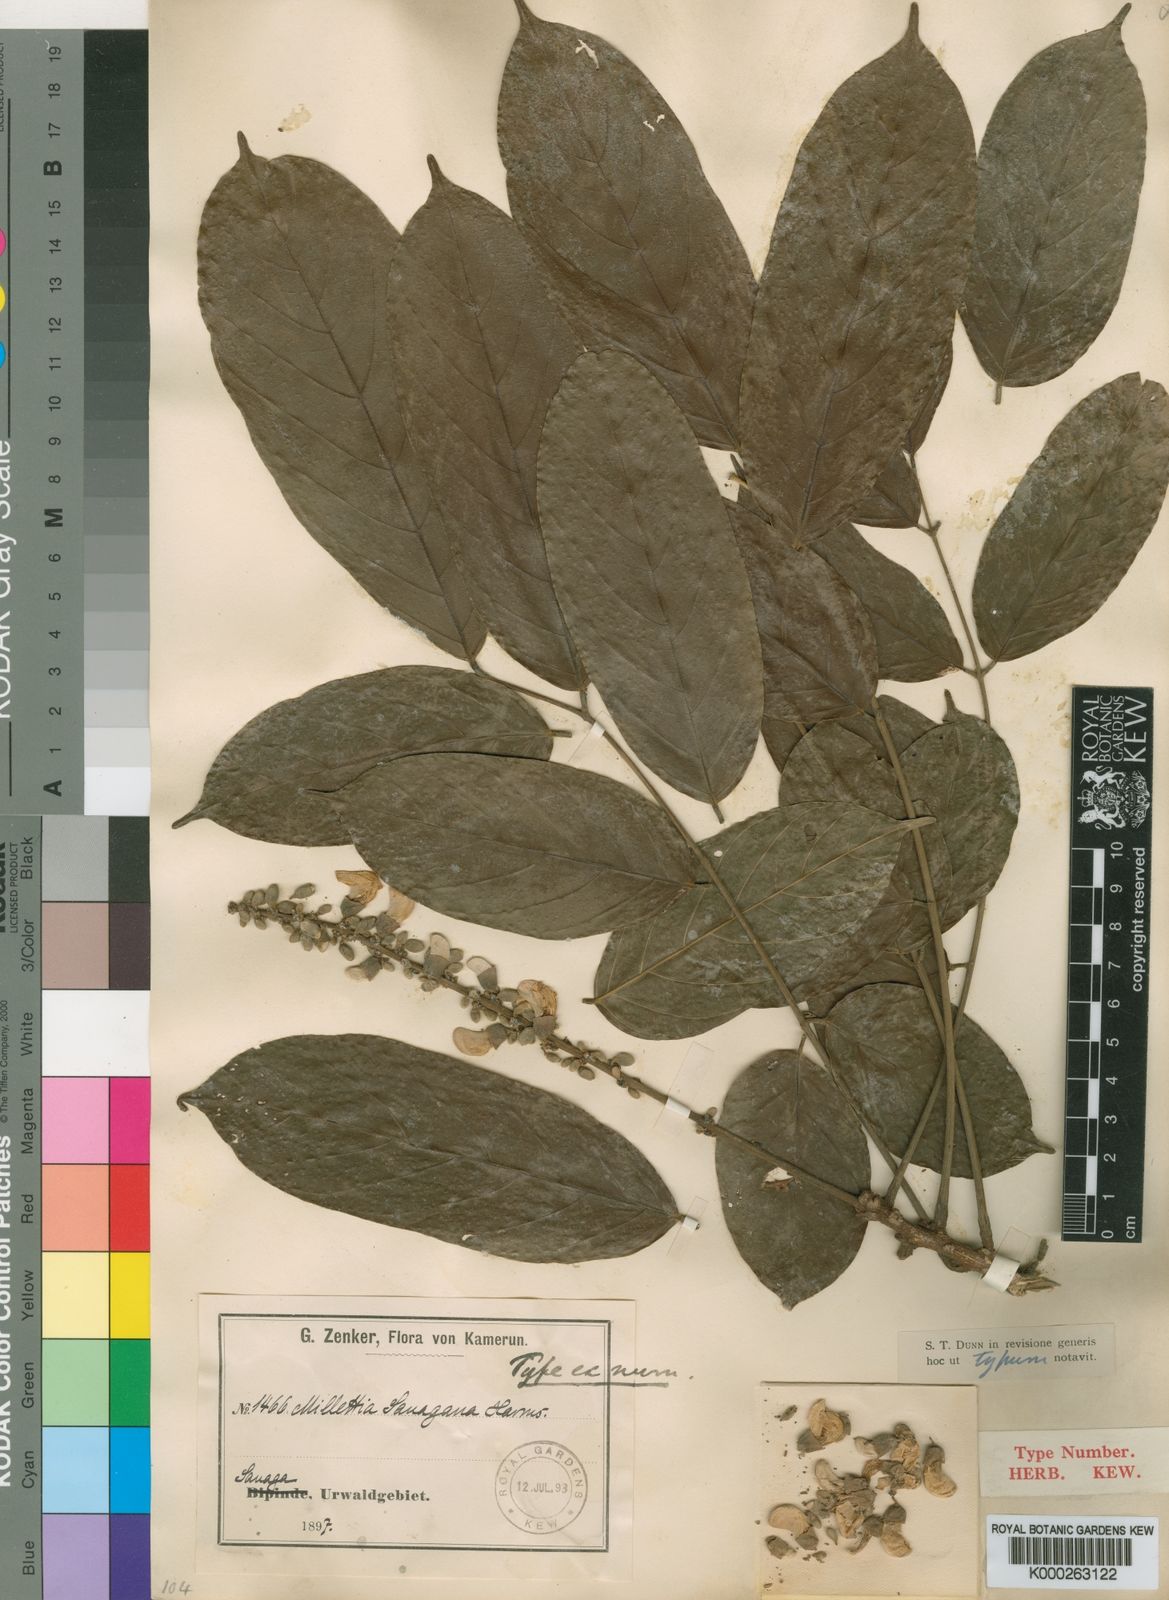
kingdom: Plantae
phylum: Tracheophyta
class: Magnoliopsida
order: Fabales
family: Fabaceae
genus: Millettia
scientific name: Millettia sanagana
